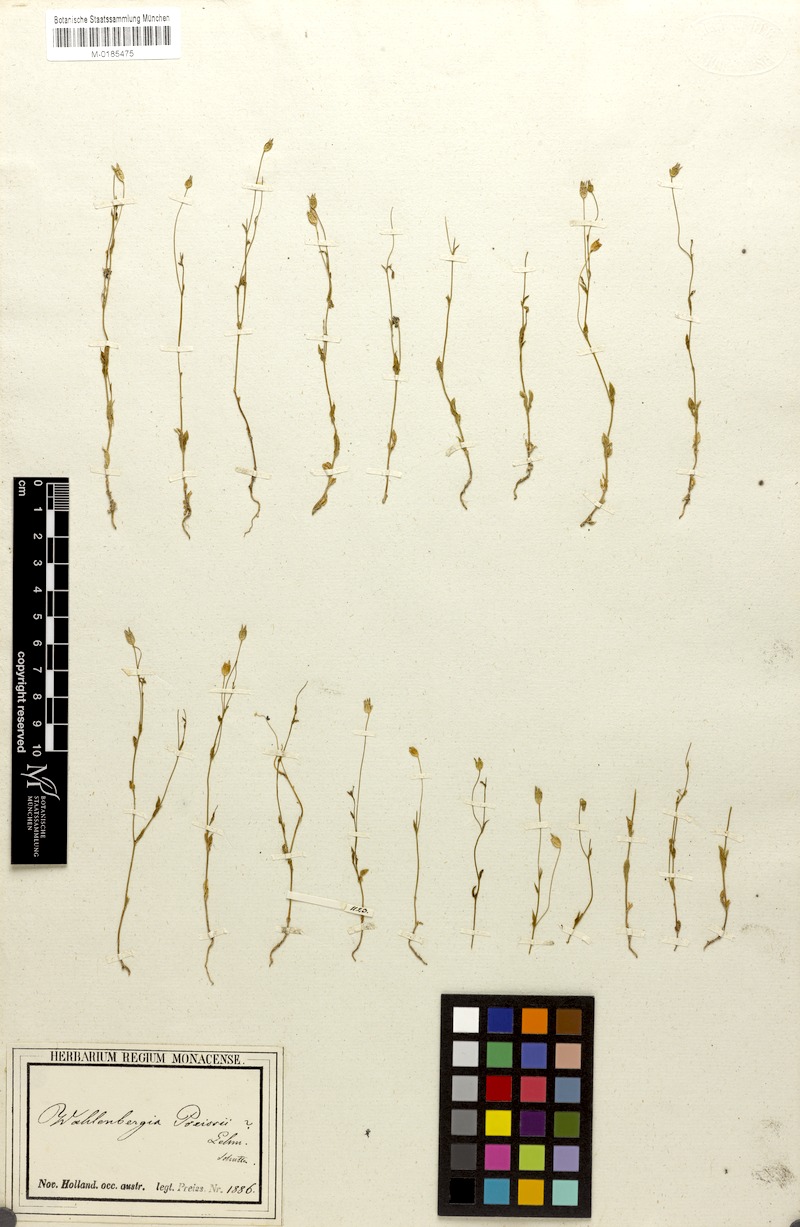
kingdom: Plantae
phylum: Tracheophyta
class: Magnoliopsida
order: Asterales
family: Campanulaceae
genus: Wahlenbergia
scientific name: Wahlenbergia preissii
